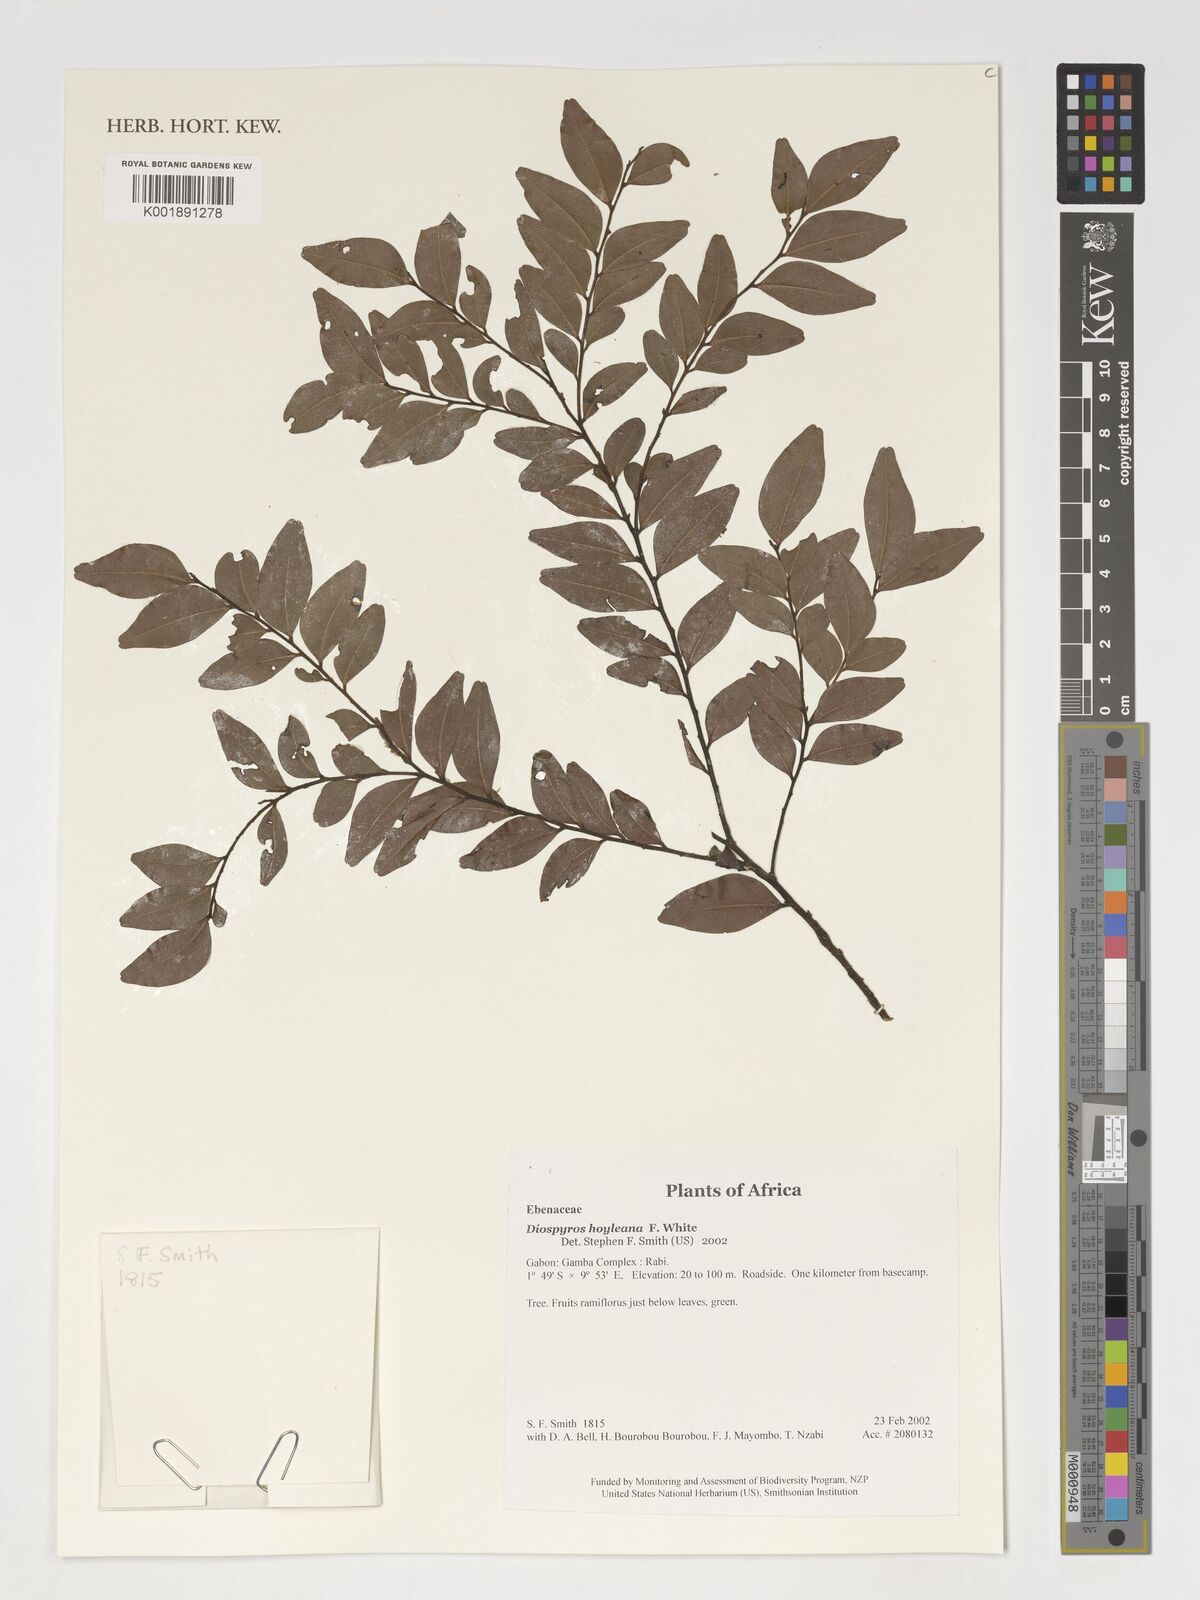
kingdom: Plantae
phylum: Tracheophyta
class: Magnoliopsida
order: Ericales
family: Ebenaceae
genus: Diospyros
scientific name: Diospyros hoyleana
